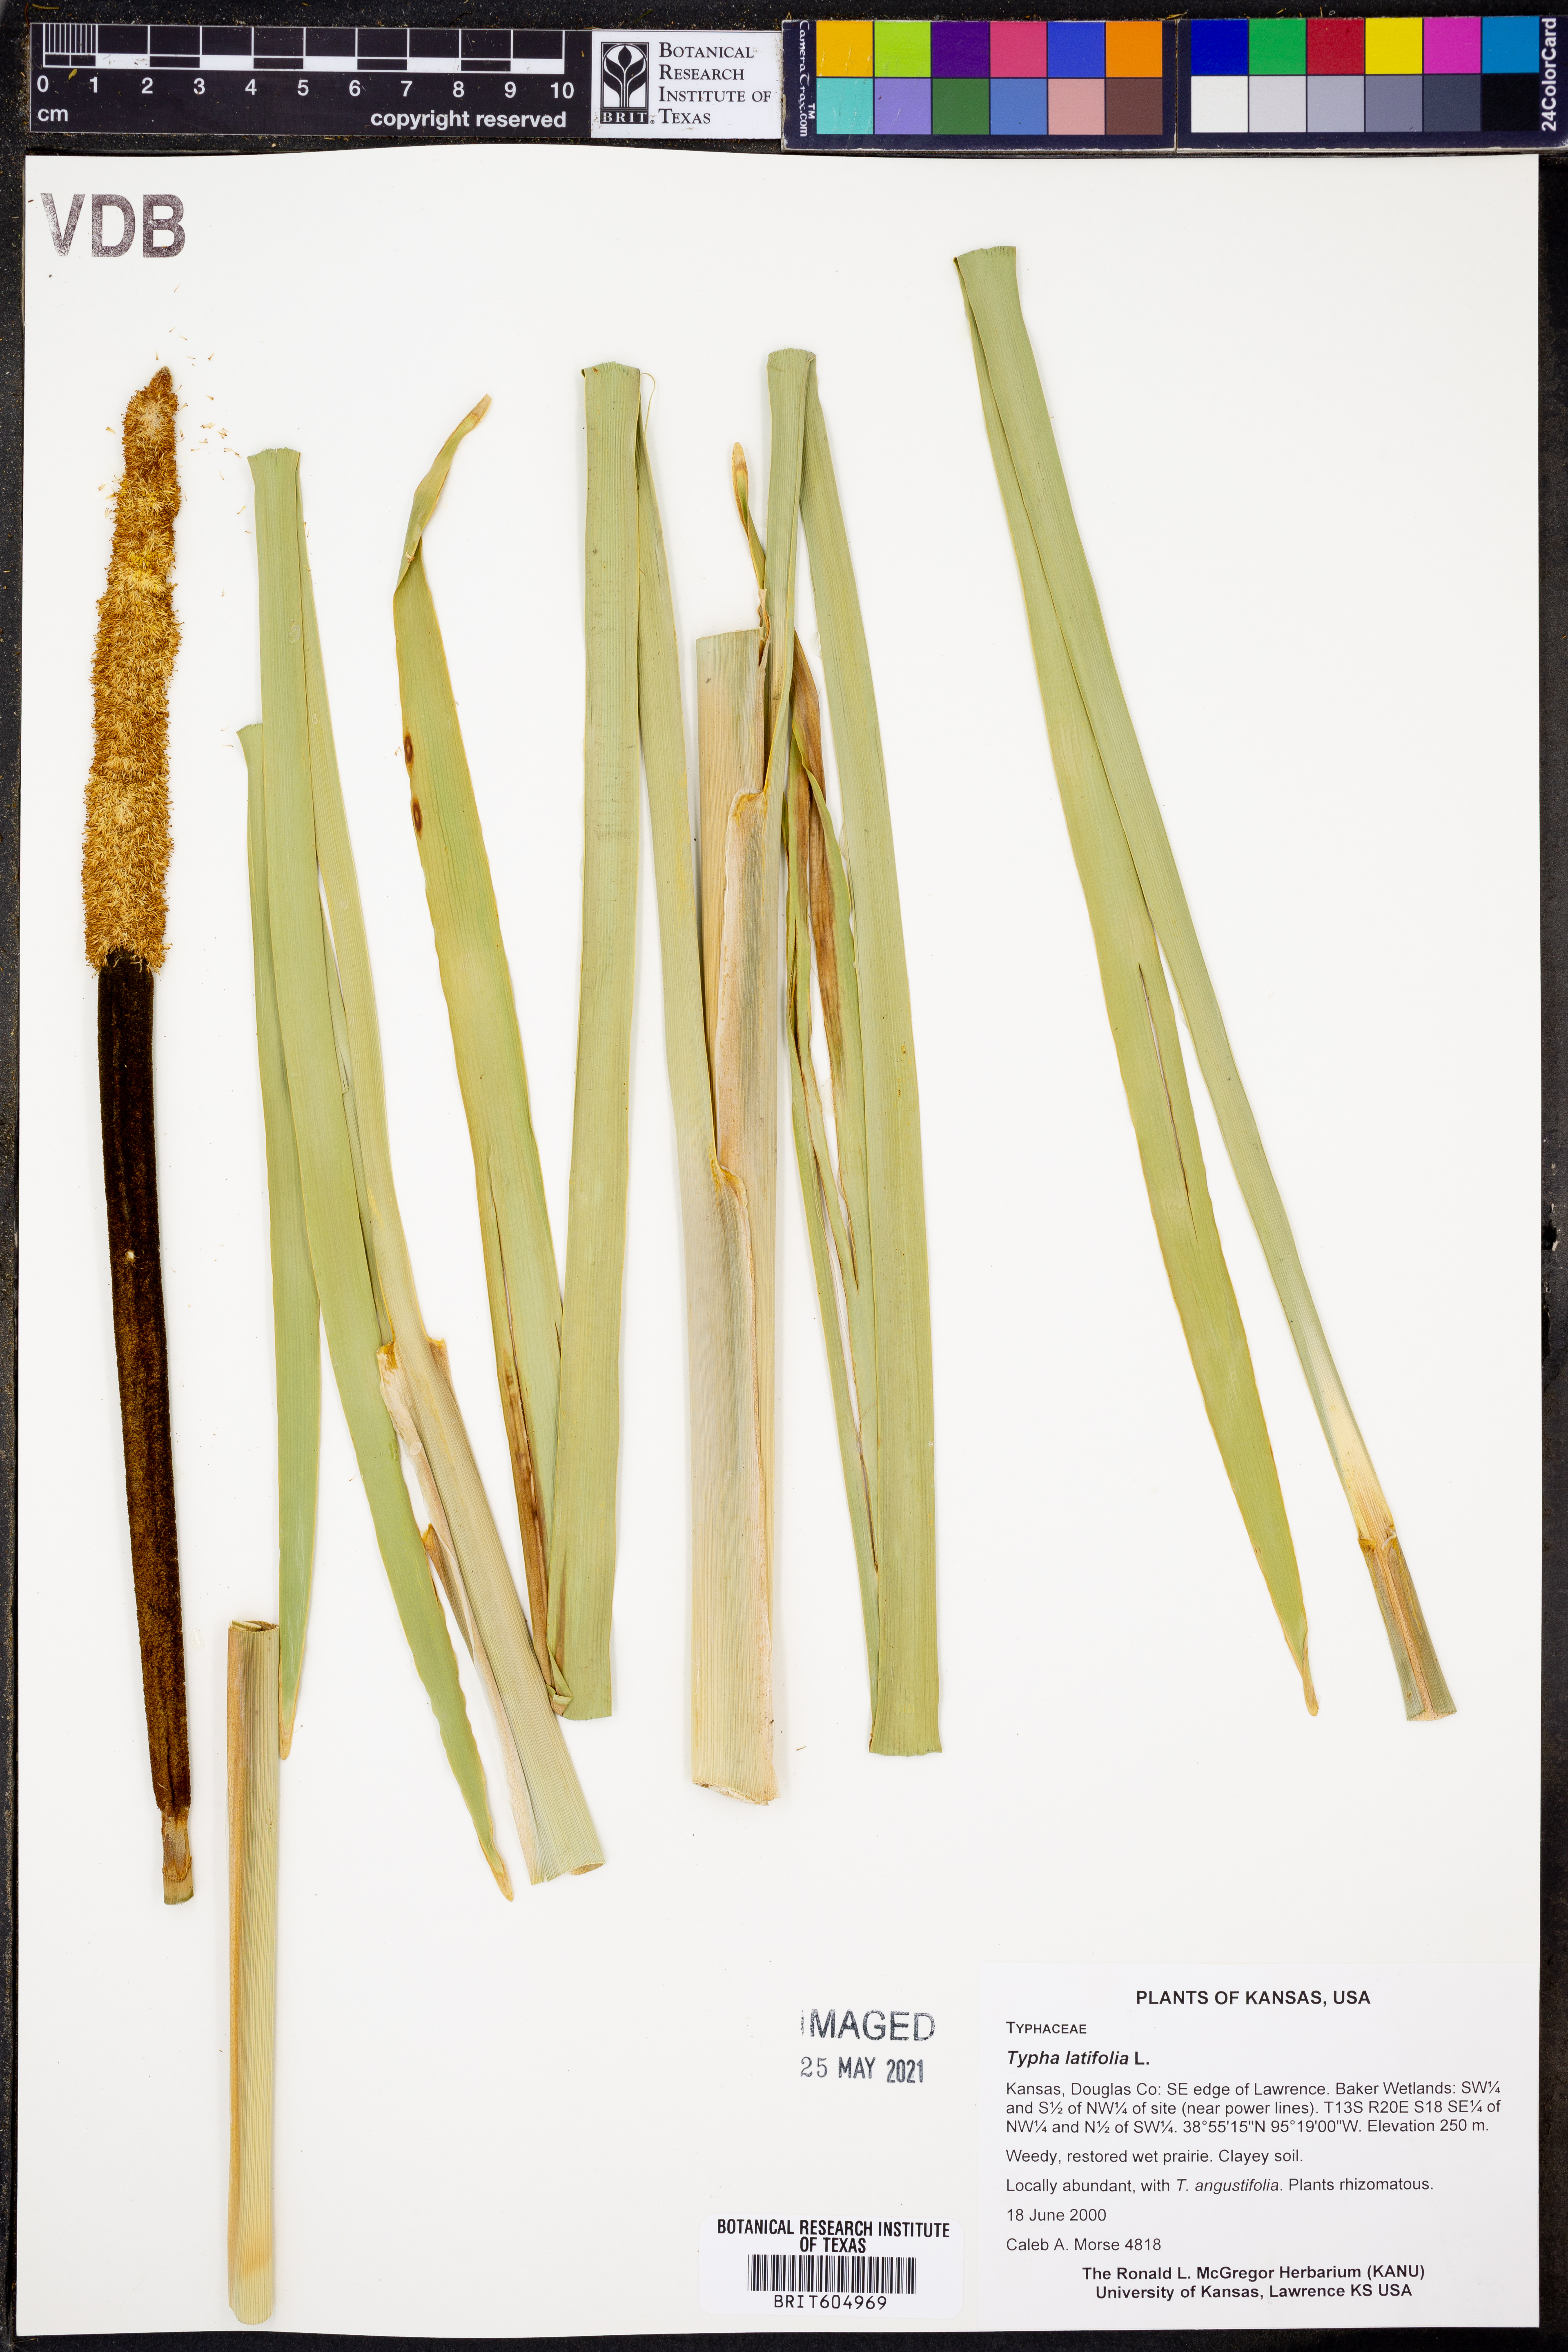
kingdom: Plantae
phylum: Tracheophyta
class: Liliopsida
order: Poales
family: Typhaceae
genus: Typha
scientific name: Typha latifolia
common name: Broadleaf cattail
